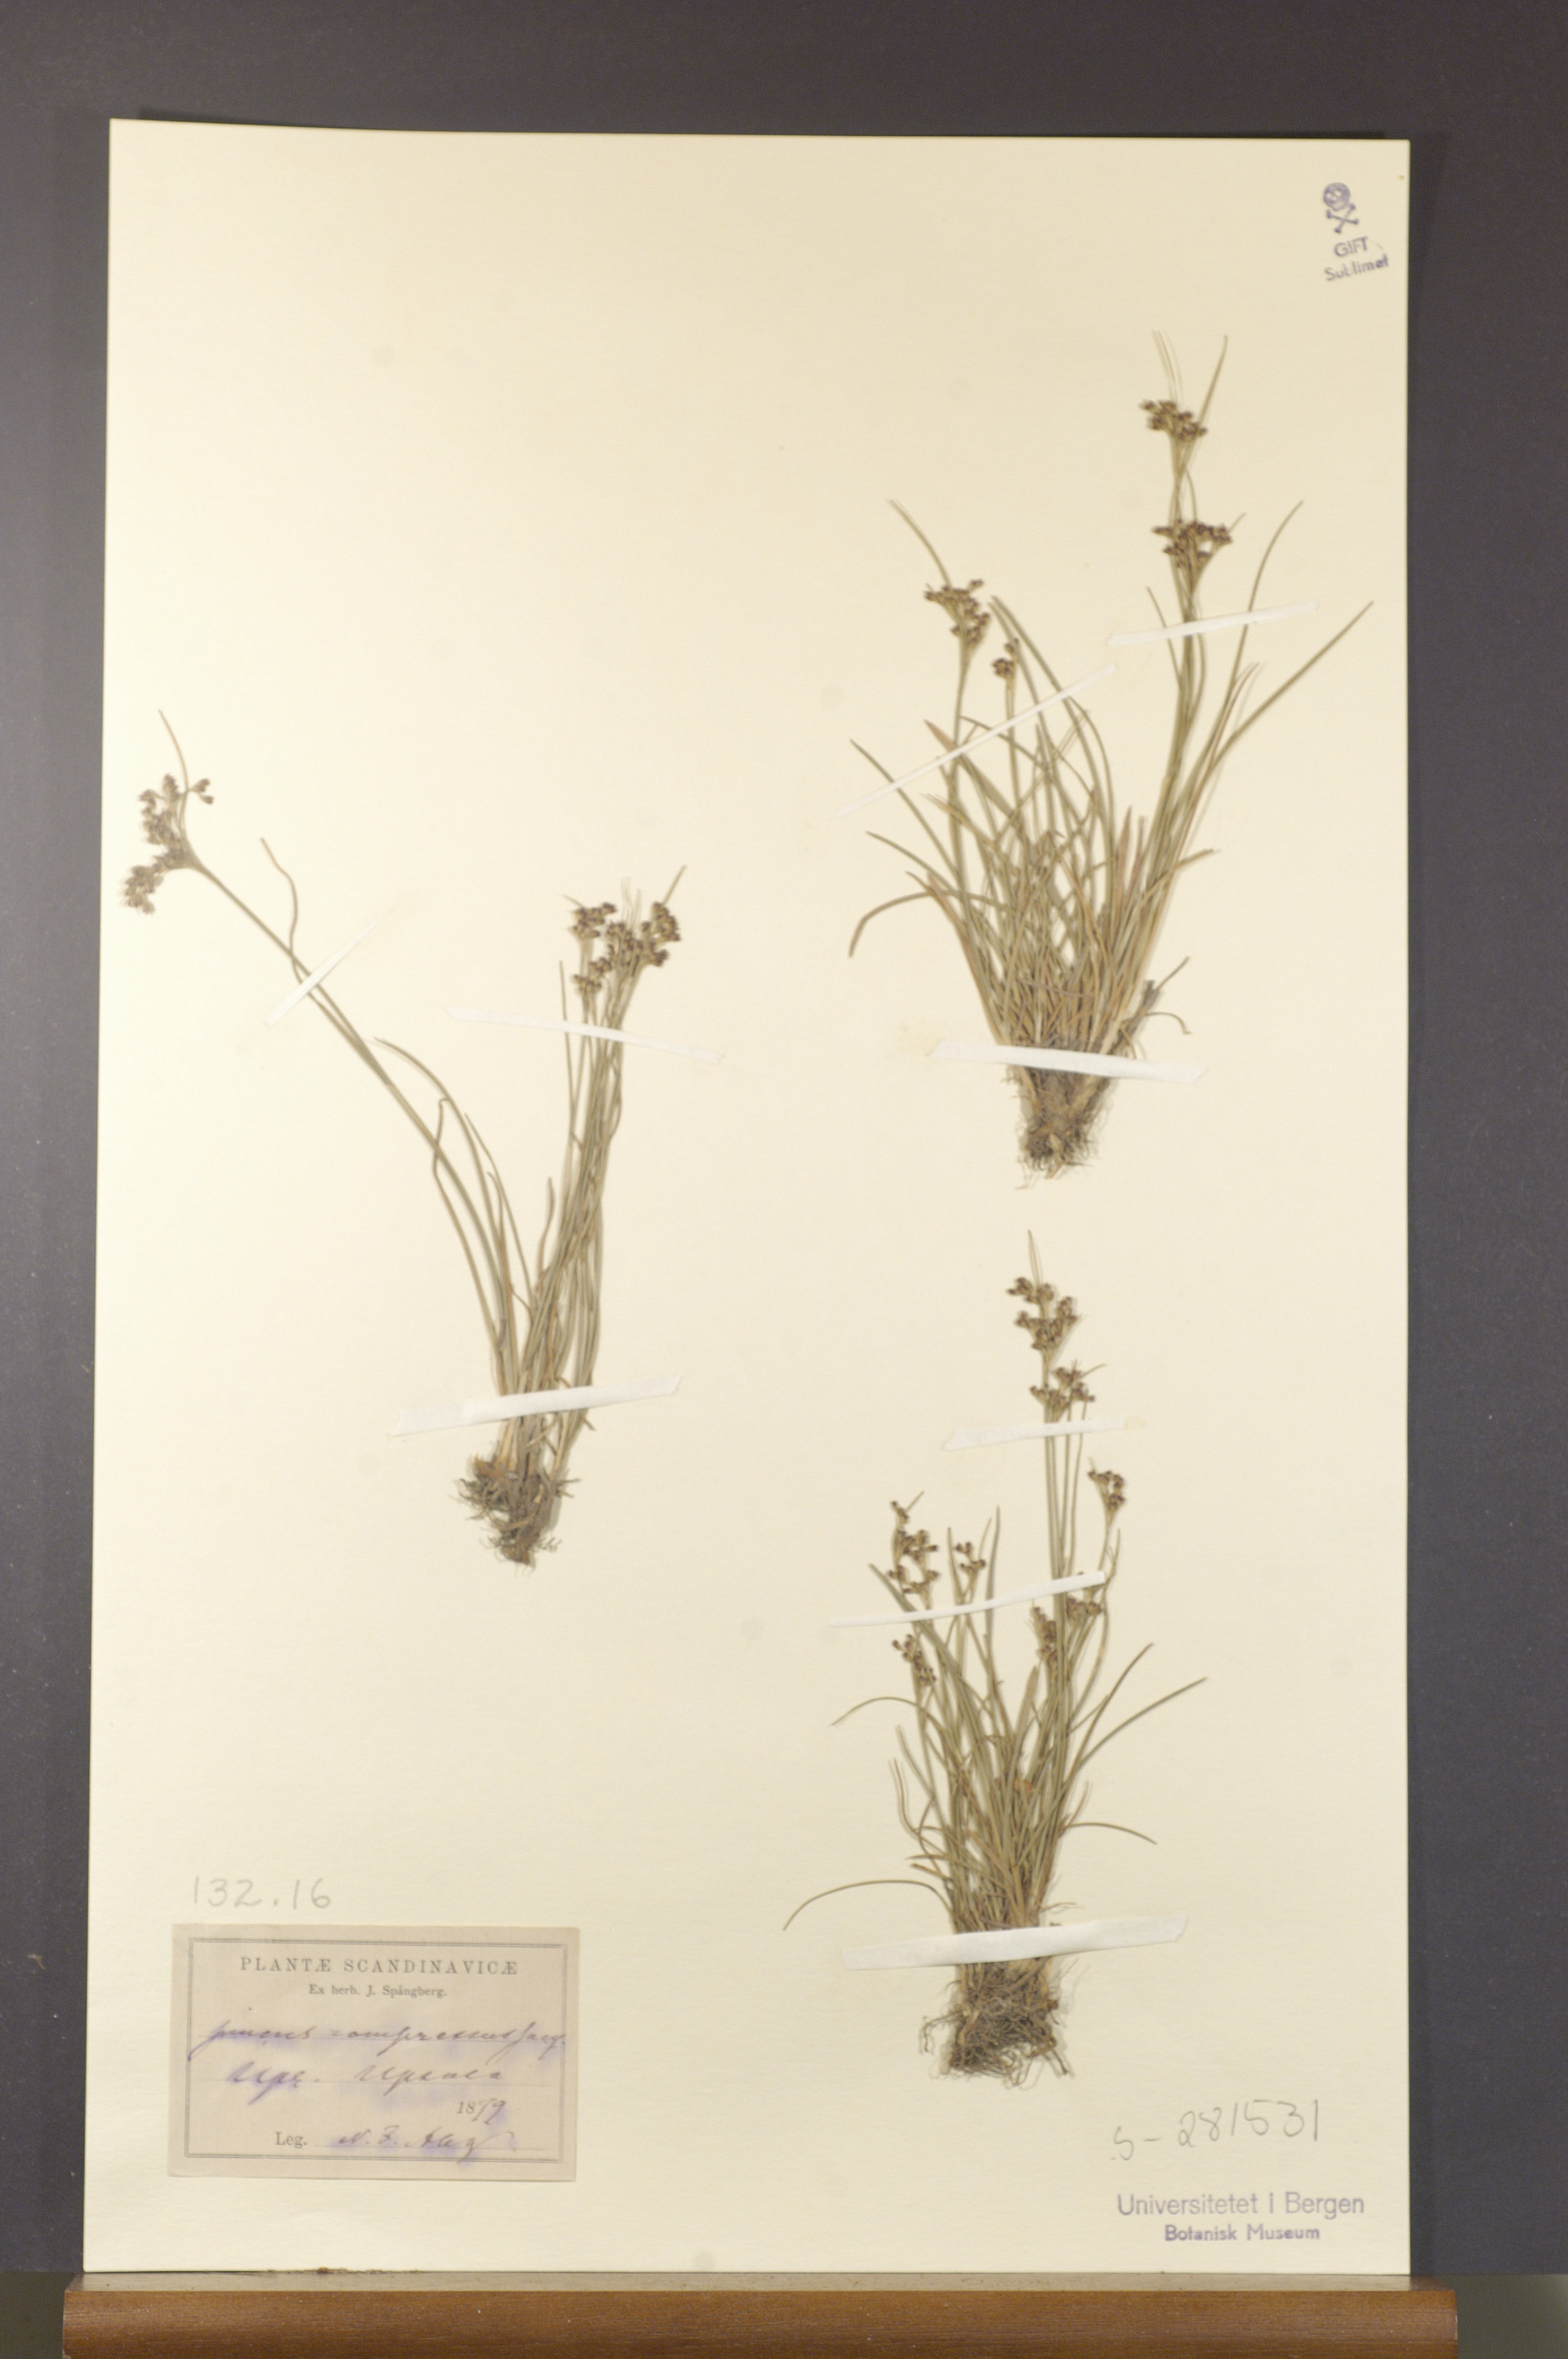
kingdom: Plantae
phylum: Tracheophyta
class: Liliopsida
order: Poales
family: Juncaceae
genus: Juncus
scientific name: Juncus compressus
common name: Round-fruited rush
